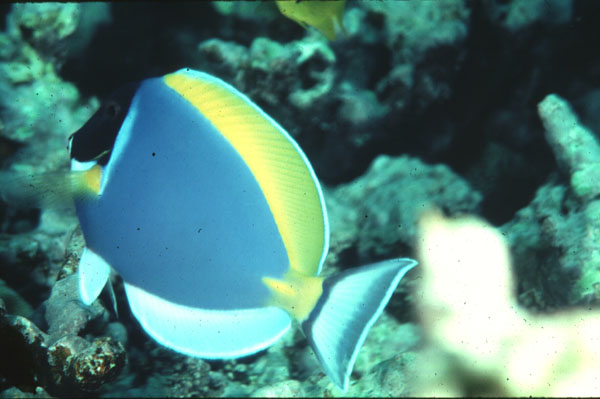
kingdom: Animalia
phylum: Chordata
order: Perciformes
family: Acanthuridae
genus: Acanthurus
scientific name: Acanthurus leucosternon
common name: Blue surgeonfish
